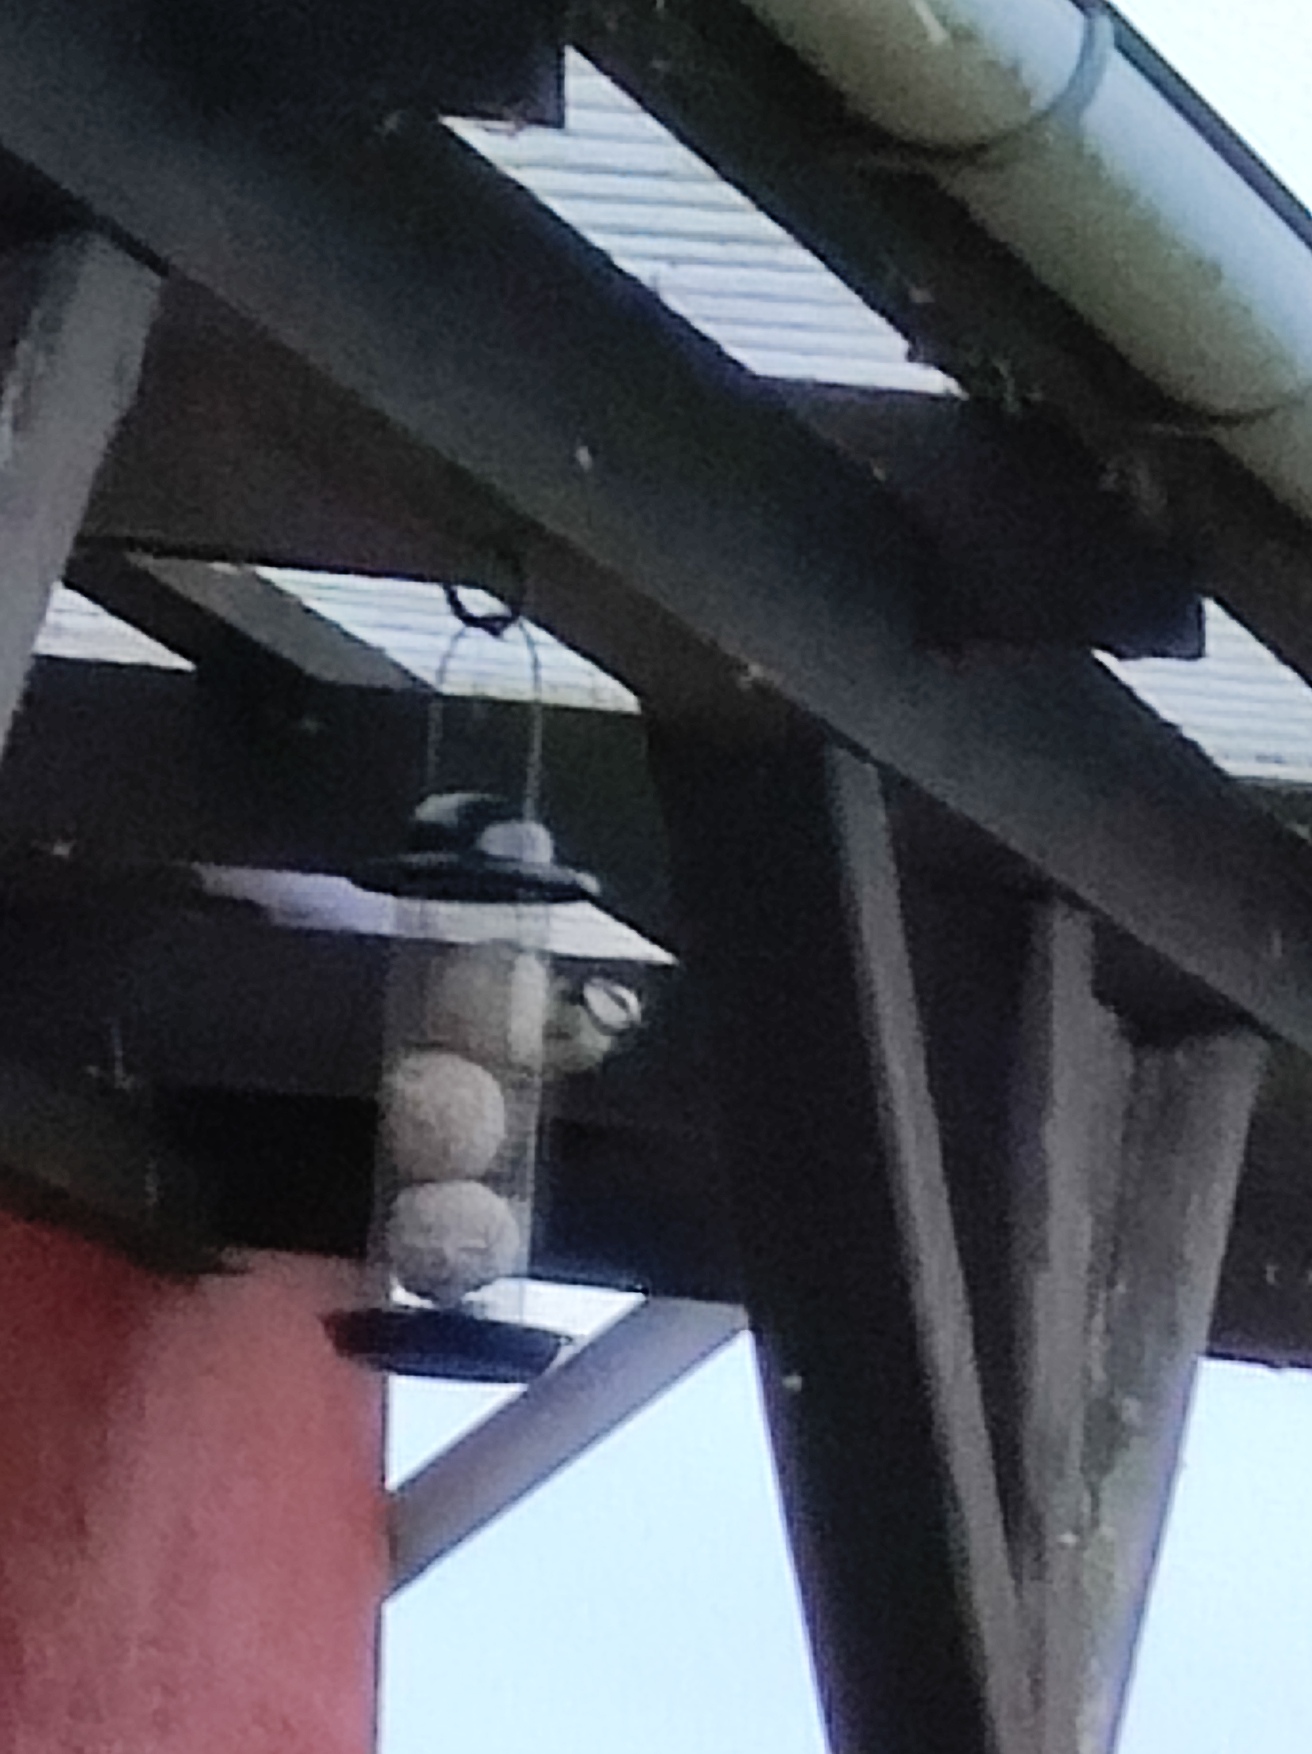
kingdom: Animalia
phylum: Chordata
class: Aves
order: Passeriformes
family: Paridae
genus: Cyanistes
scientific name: Cyanistes caeruleus
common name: Blåmejse
